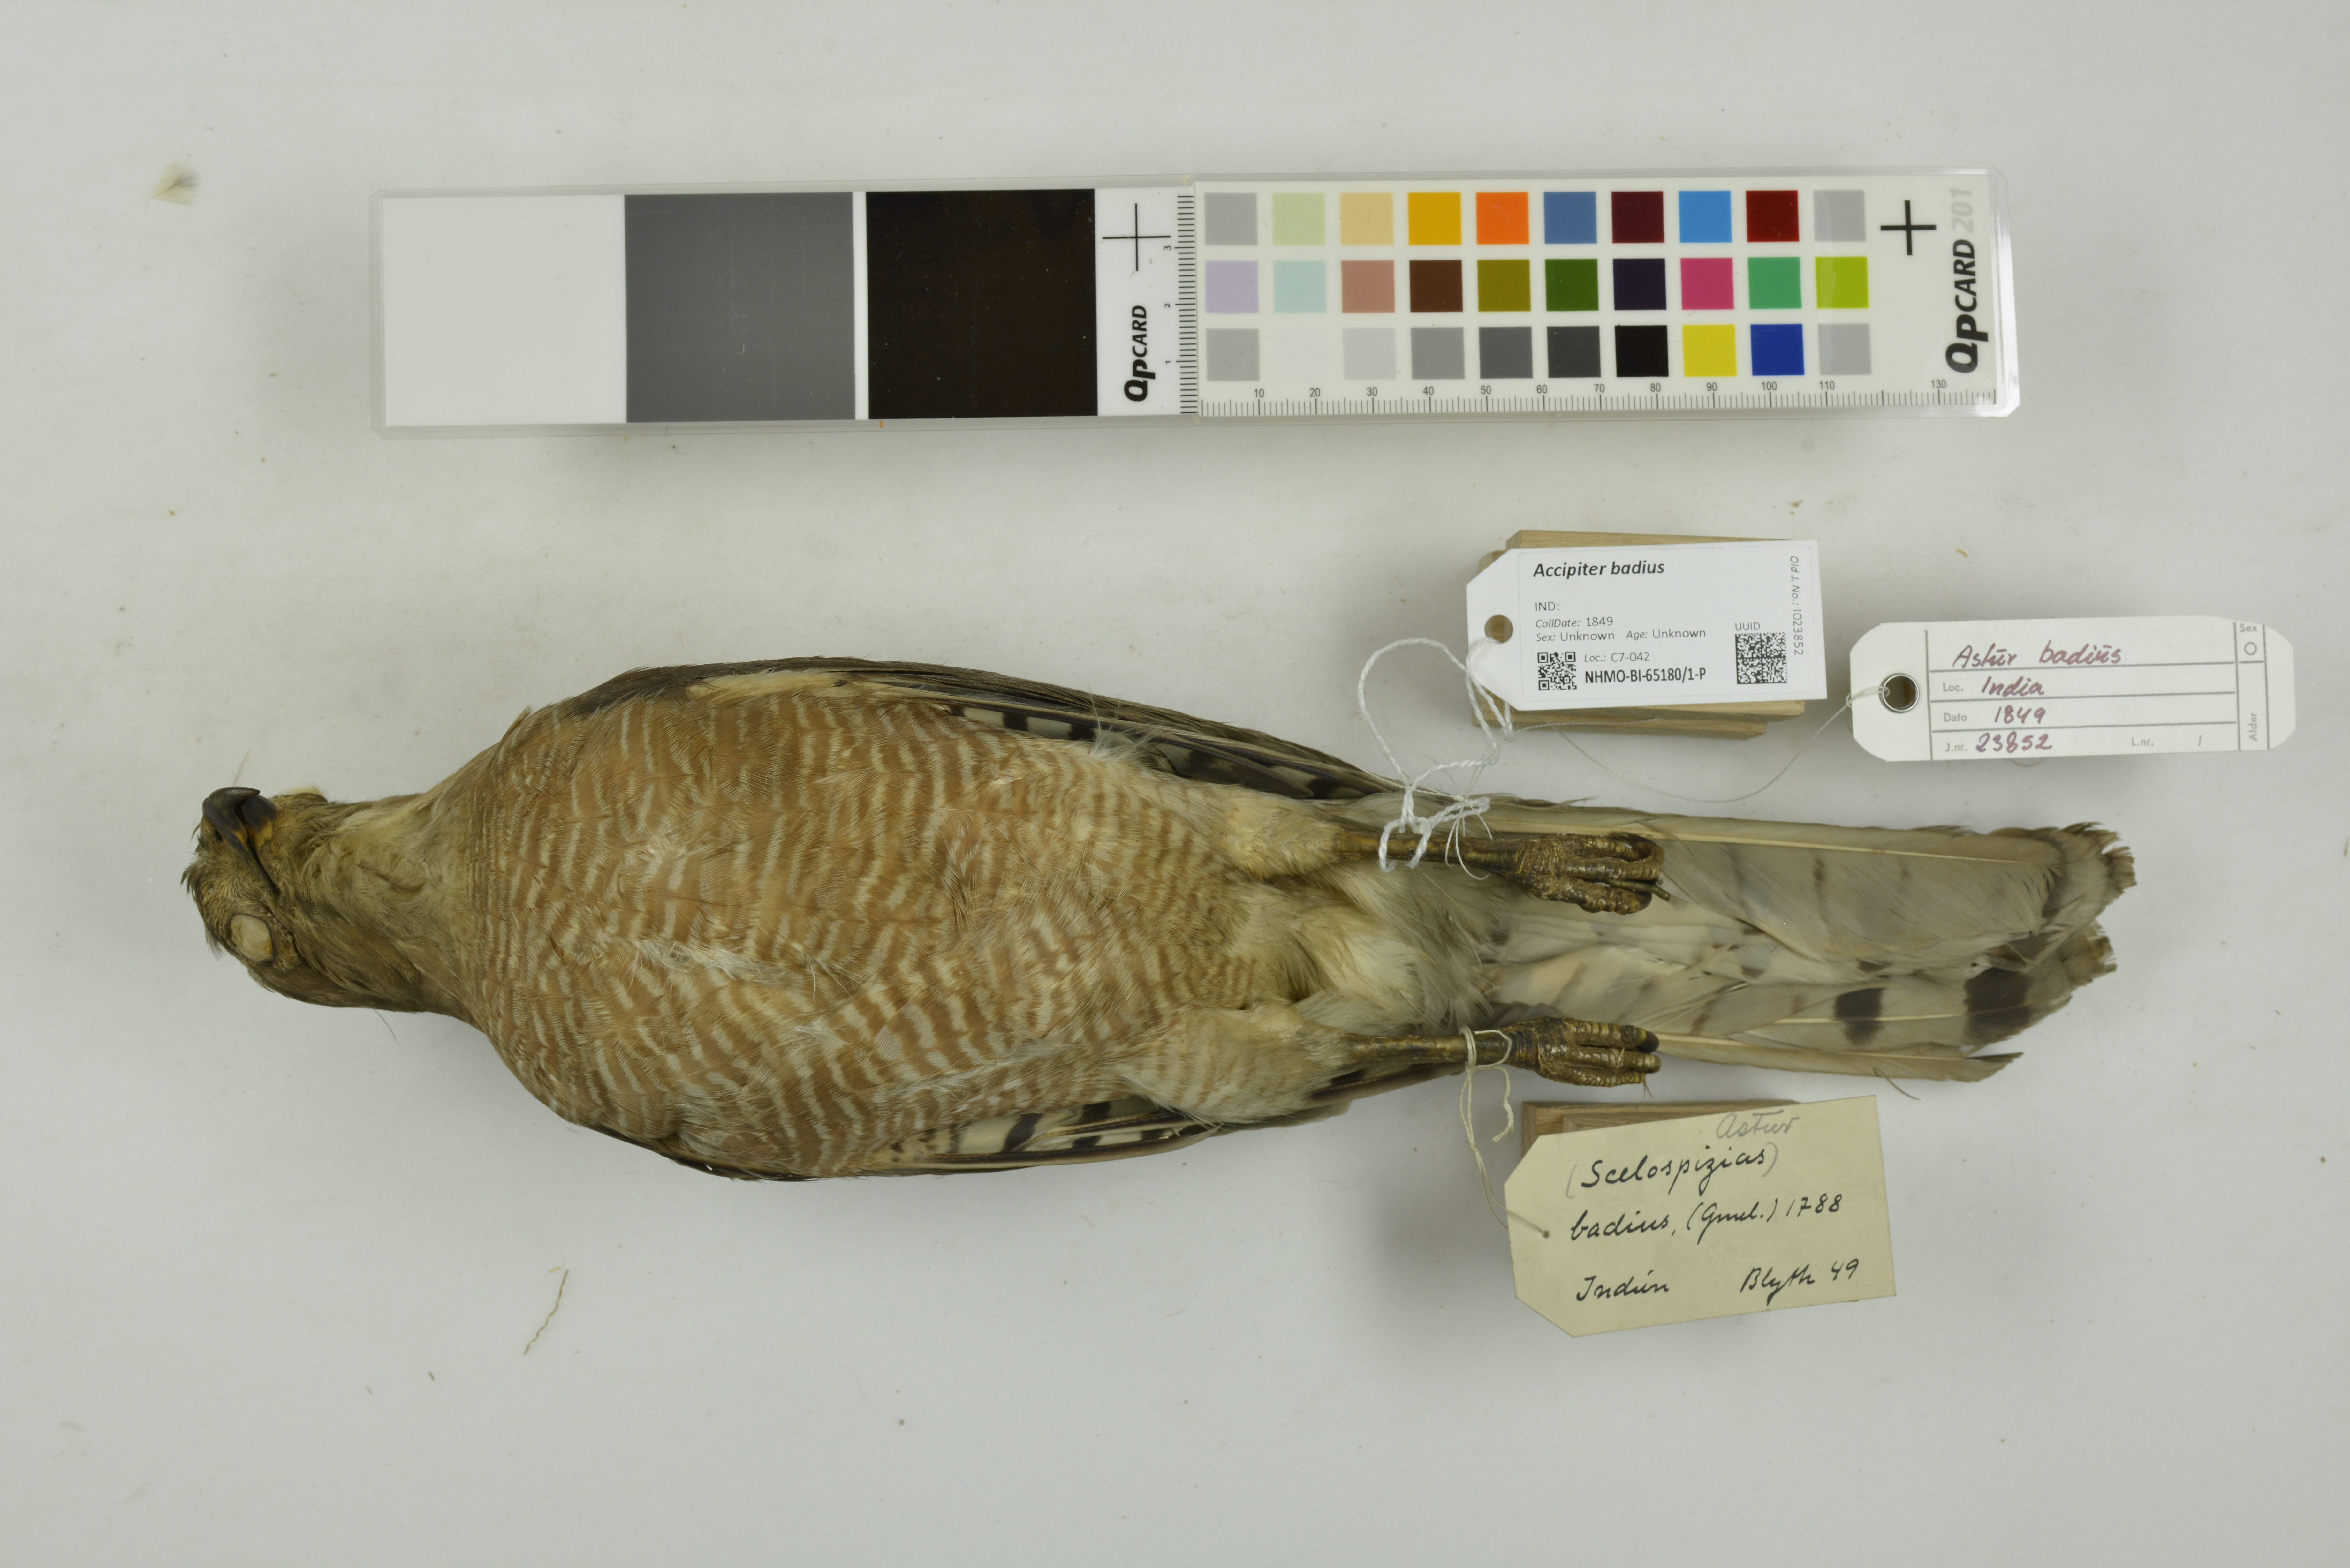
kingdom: Animalia
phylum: Chordata
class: Aves
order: Accipitriformes
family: Accipitridae
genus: Accipiter
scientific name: Accipiter badius
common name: Shikra
